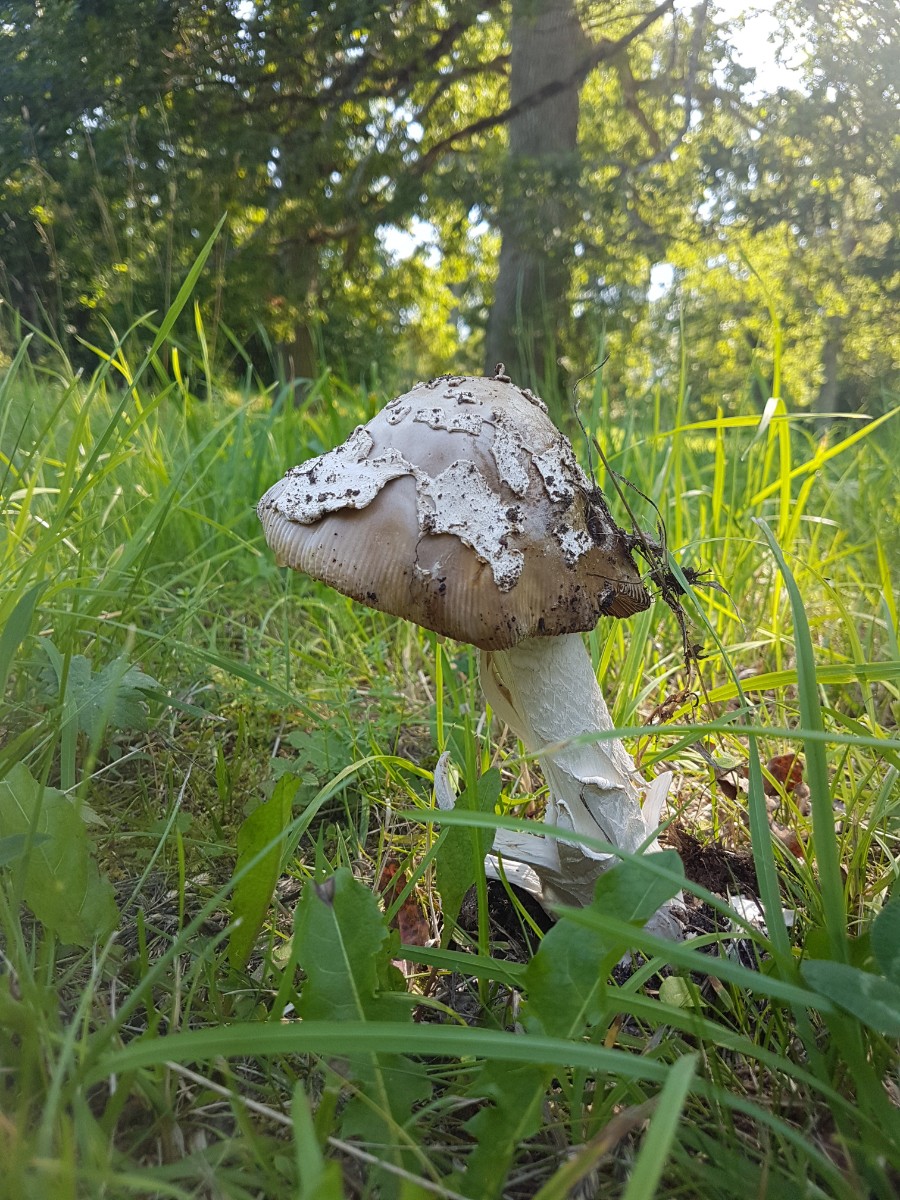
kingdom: Fungi
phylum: Basidiomycota
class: Agaricomycetes
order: Agaricales
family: Amanitaceae
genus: Amanita
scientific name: Amanita ceciliae
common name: stor kam-fluesvamp
